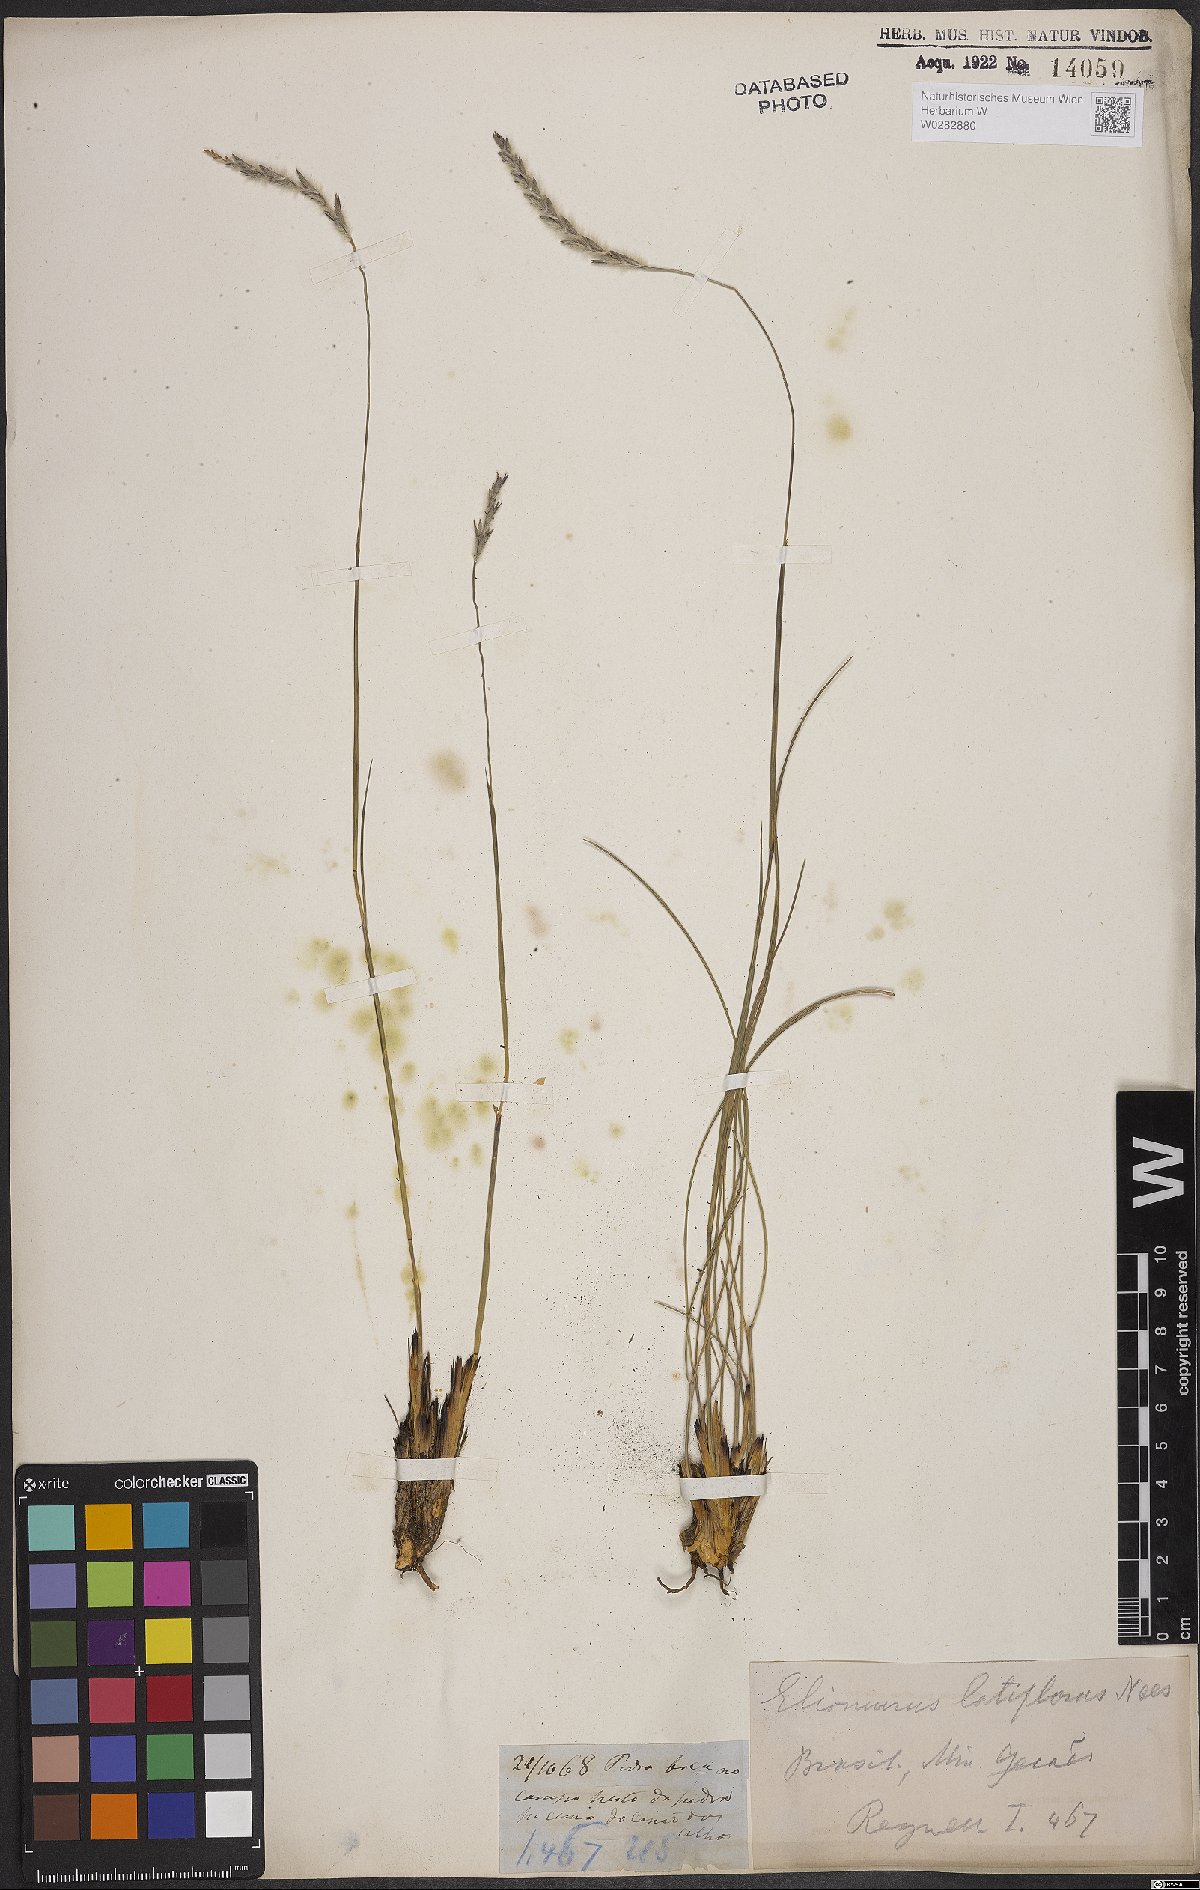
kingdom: Plantae
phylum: Tracheophyta
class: Liliopsida
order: Poales
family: Poaceae
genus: Elionurus
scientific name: Elionurus muticus
